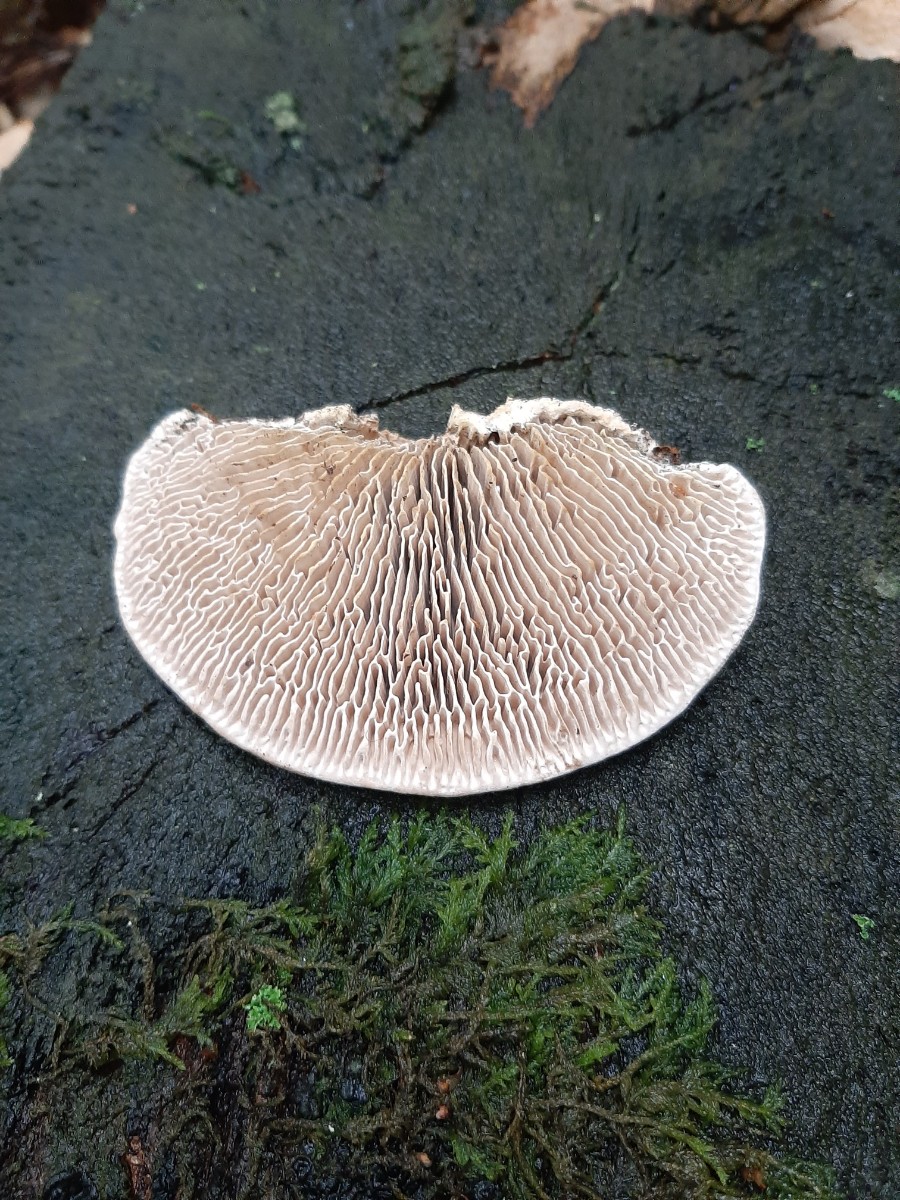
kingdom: Fungi
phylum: Basidiomycota
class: Agaricomycetes
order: Polyporales
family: Fomitopsidaceae
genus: Daedalea
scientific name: Daedalea quercina
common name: ege-labyrintsvamp
